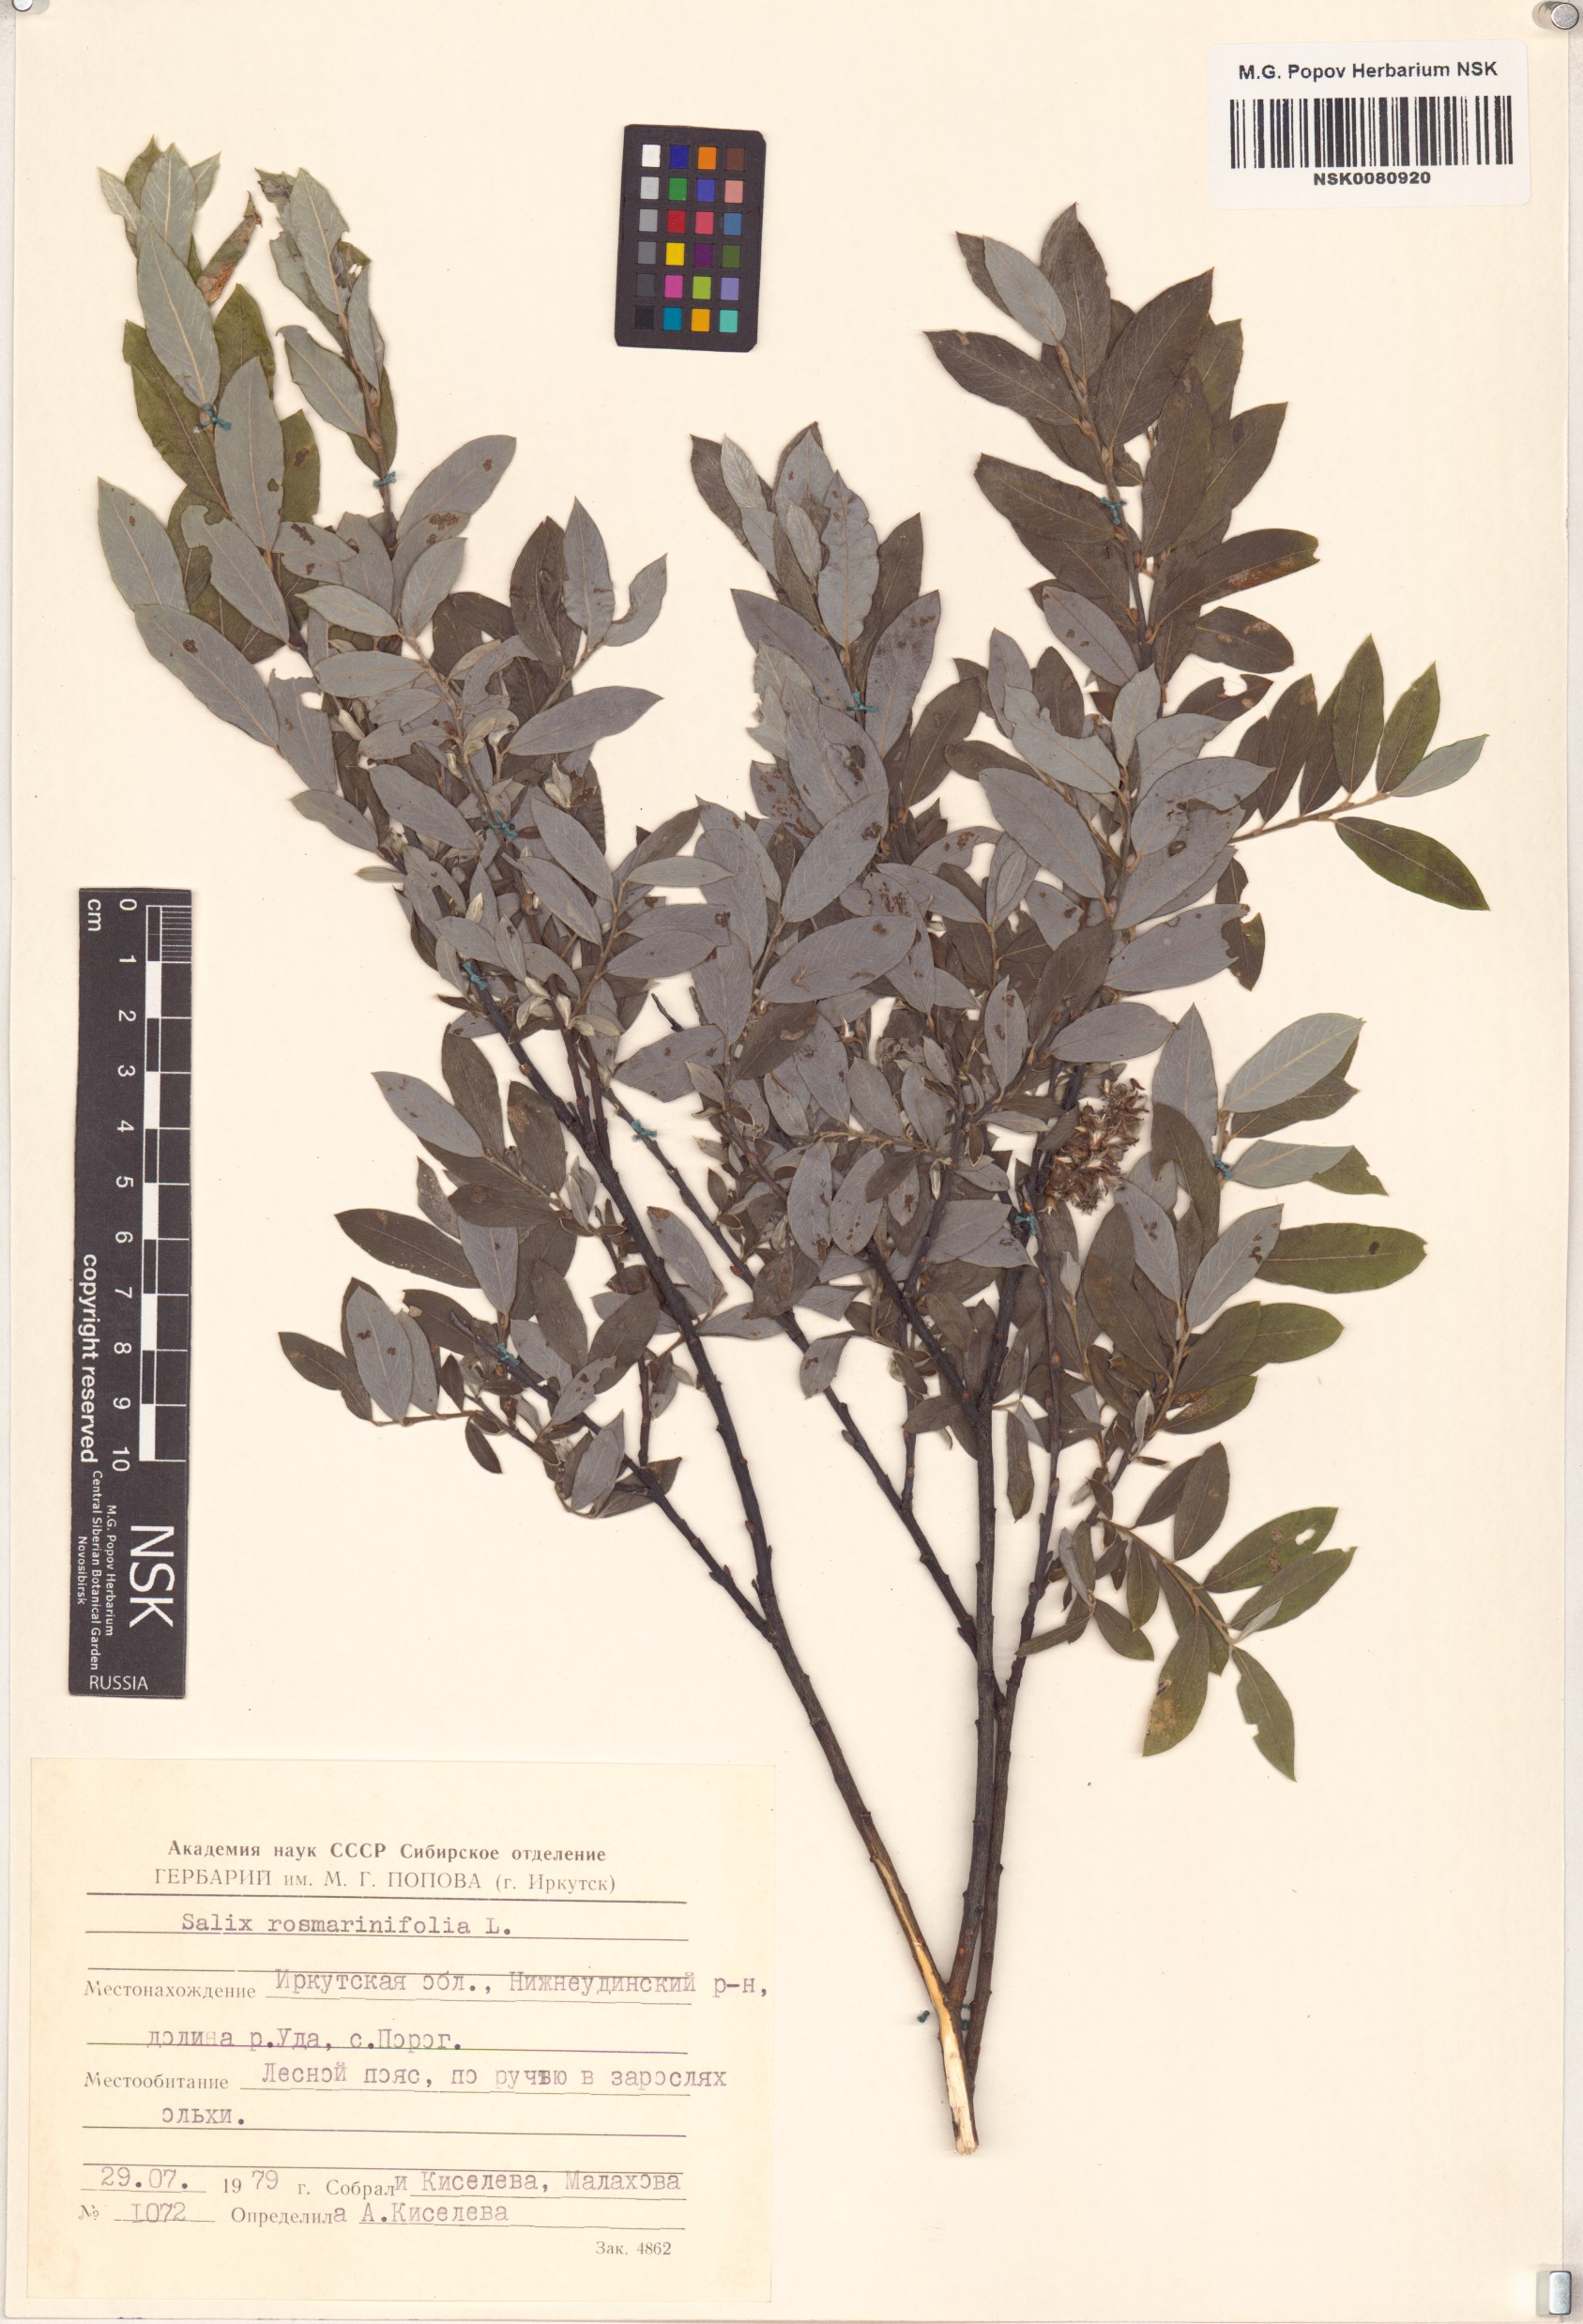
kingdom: Plantae
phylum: Tracheophyta
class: Magnoliopsida
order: Malpighiales
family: Salicaceae
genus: Salix
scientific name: Salix rosmarinifolia
